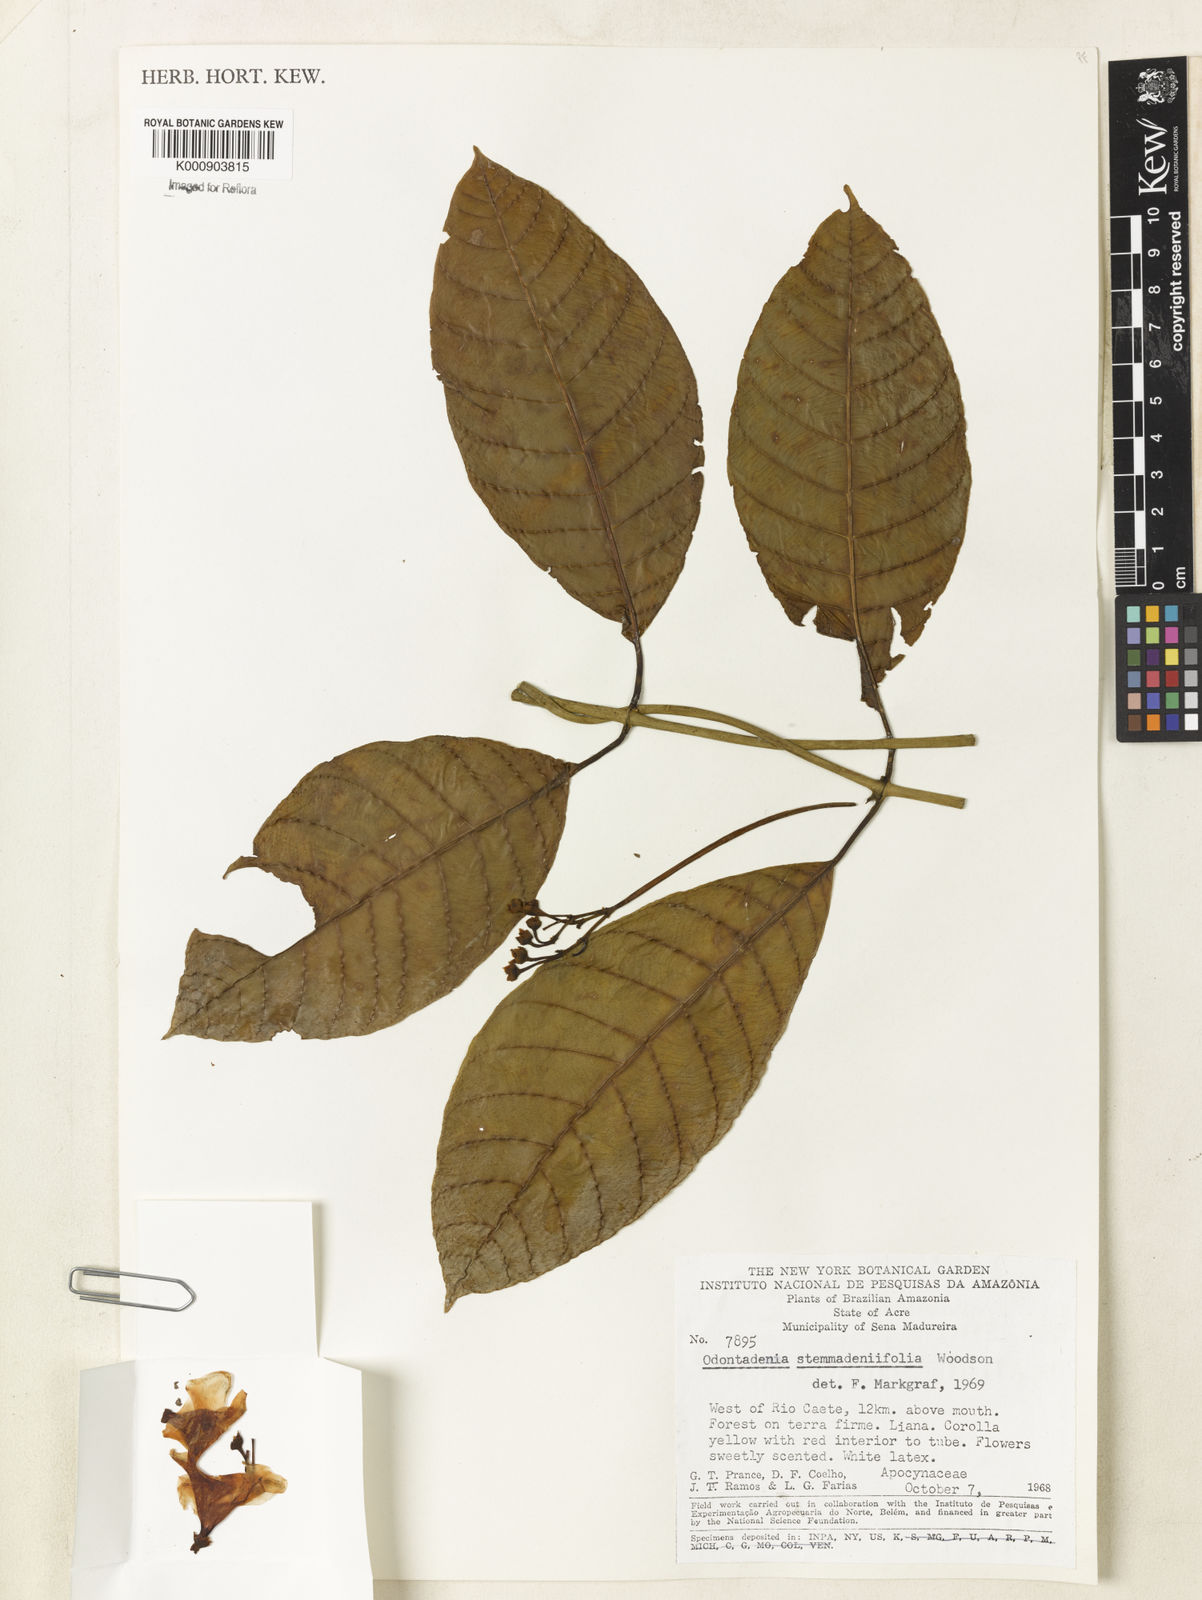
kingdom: Plantae
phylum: Tracheophyta
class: Magnoliopsida
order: Gentianales
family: Apocynaceae
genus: Odontadenia
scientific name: Odontadenia stemmadeniifolia
